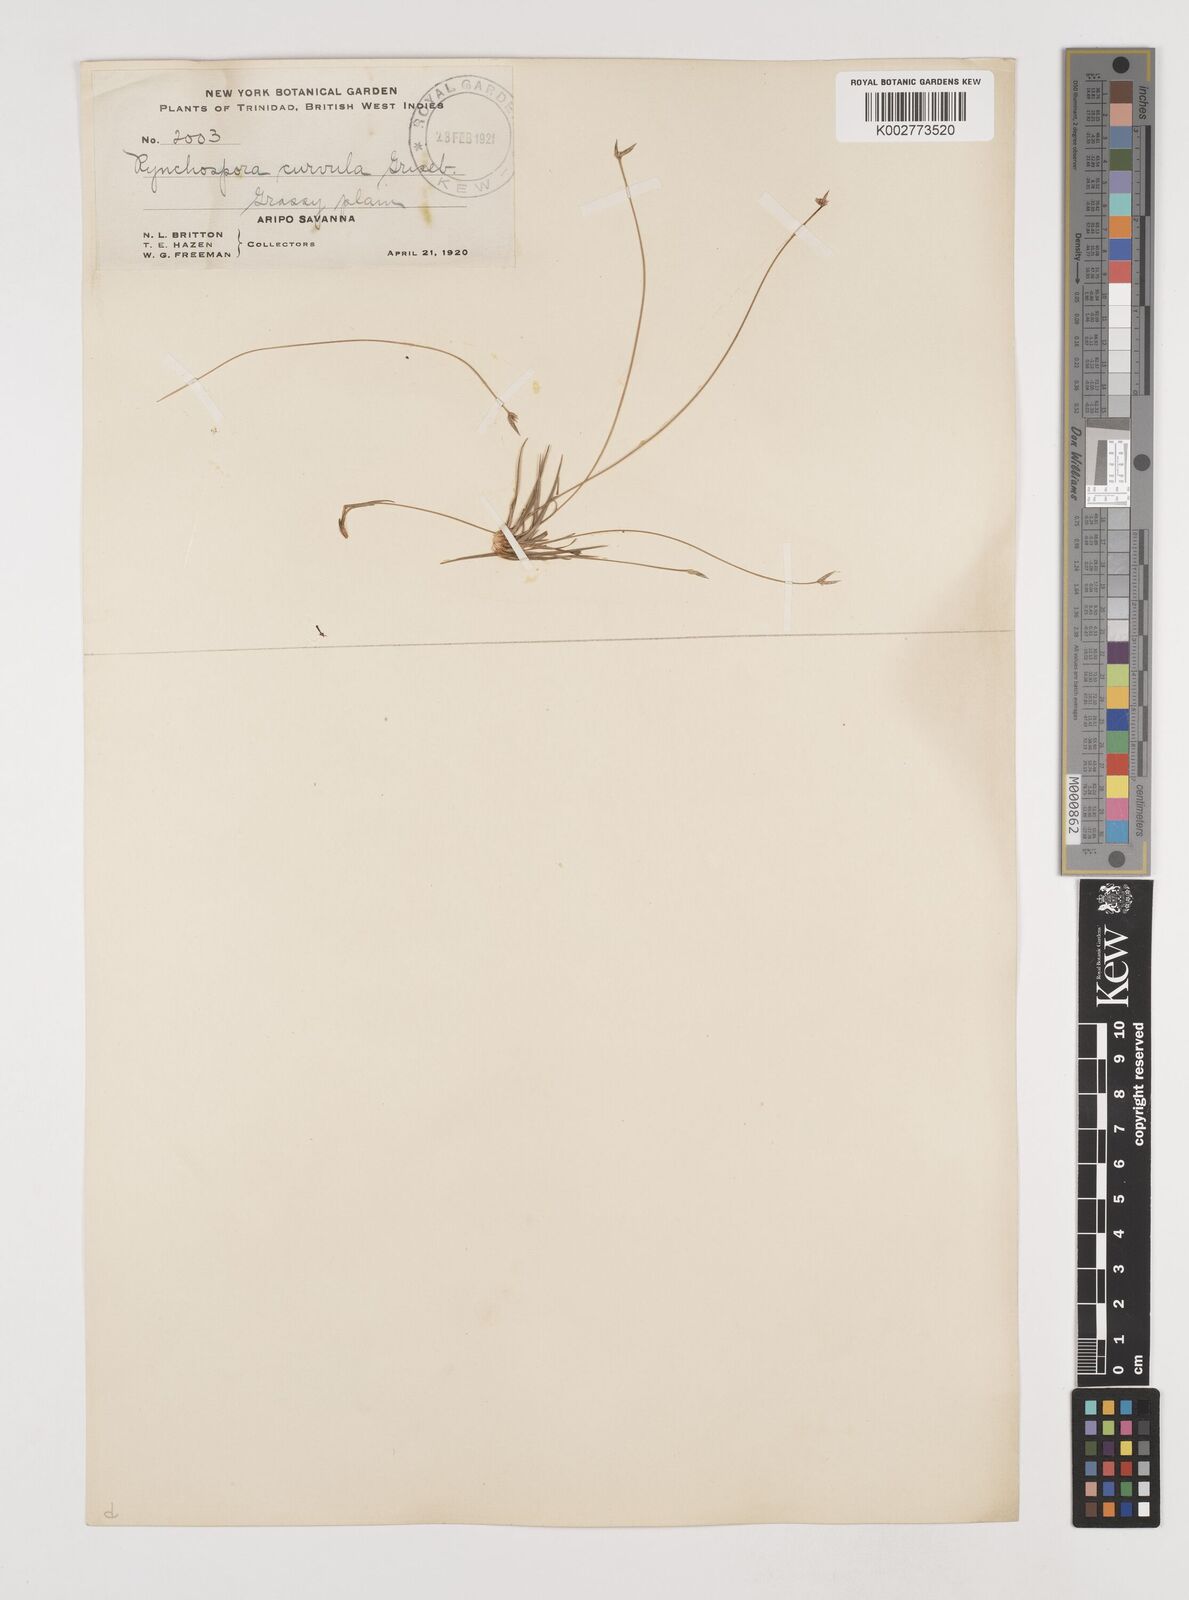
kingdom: Plantae
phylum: Tracheophyta
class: Liliopsida
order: Poales
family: Cyperaceae
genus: Rhynchospora
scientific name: Rhynchospora tenuis
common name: Quill beaksedge
